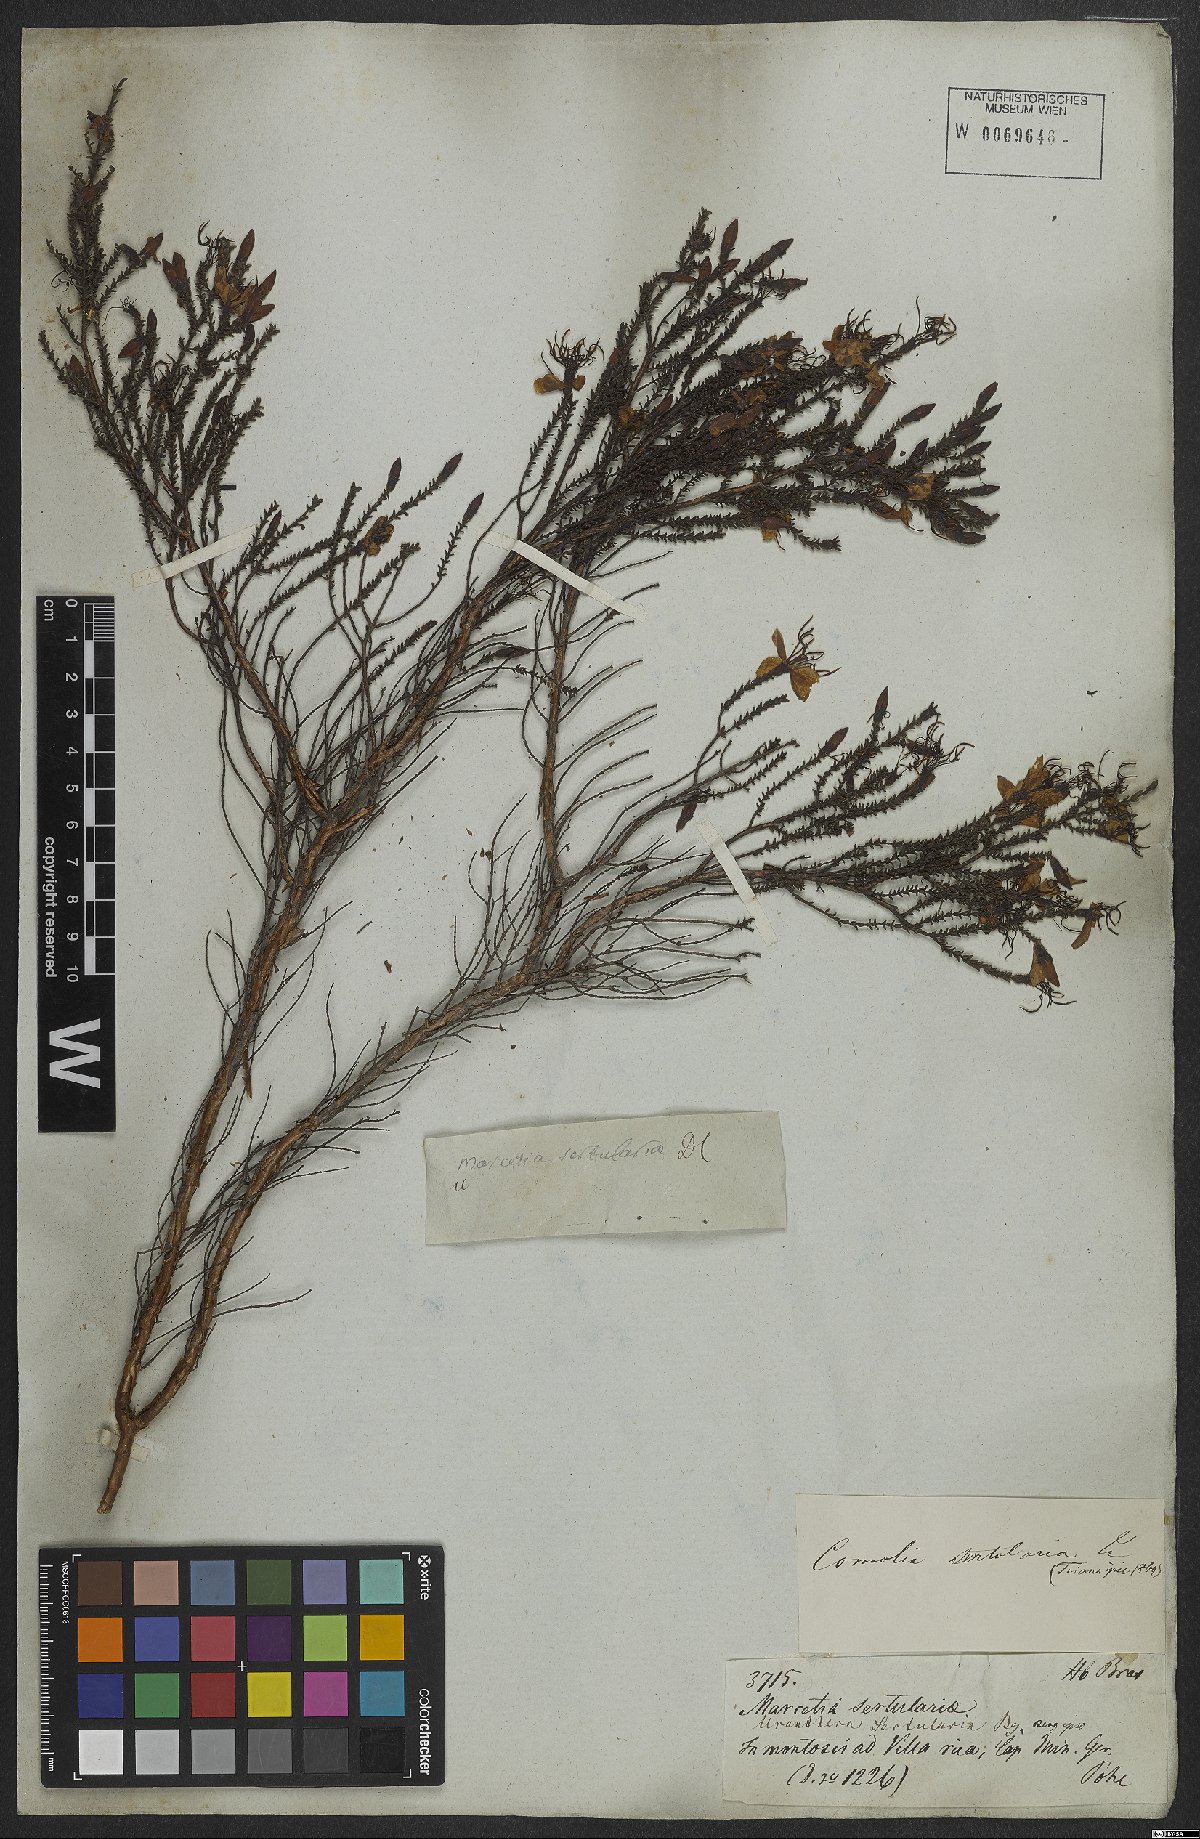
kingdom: Plantae
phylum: Tracheophyta
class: Magnoliopsida
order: Myrtales
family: Melastomataceae
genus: Fritzschia
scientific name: Fritzschia sertularia
